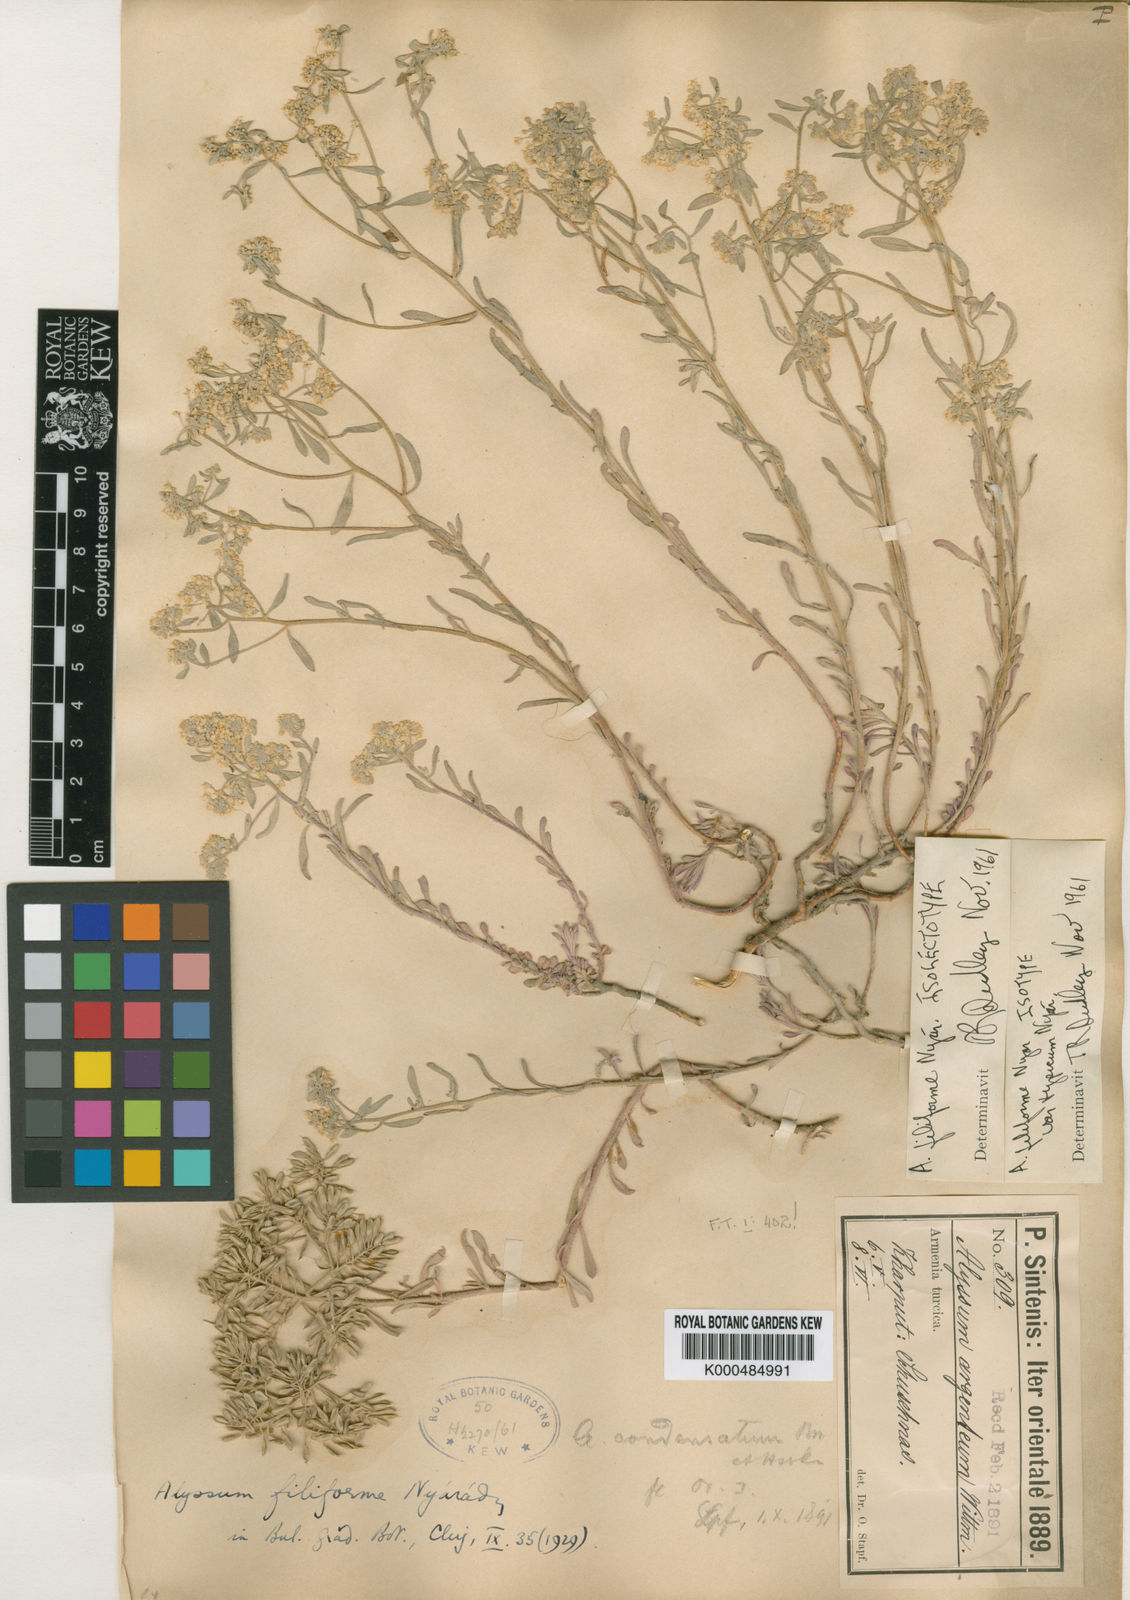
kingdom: Plantae
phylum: Tracheophyta
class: Magnoliopsida
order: Brassicales
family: Brassicaceae
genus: Odontarrhena
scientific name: Odontarrhena filiformis
